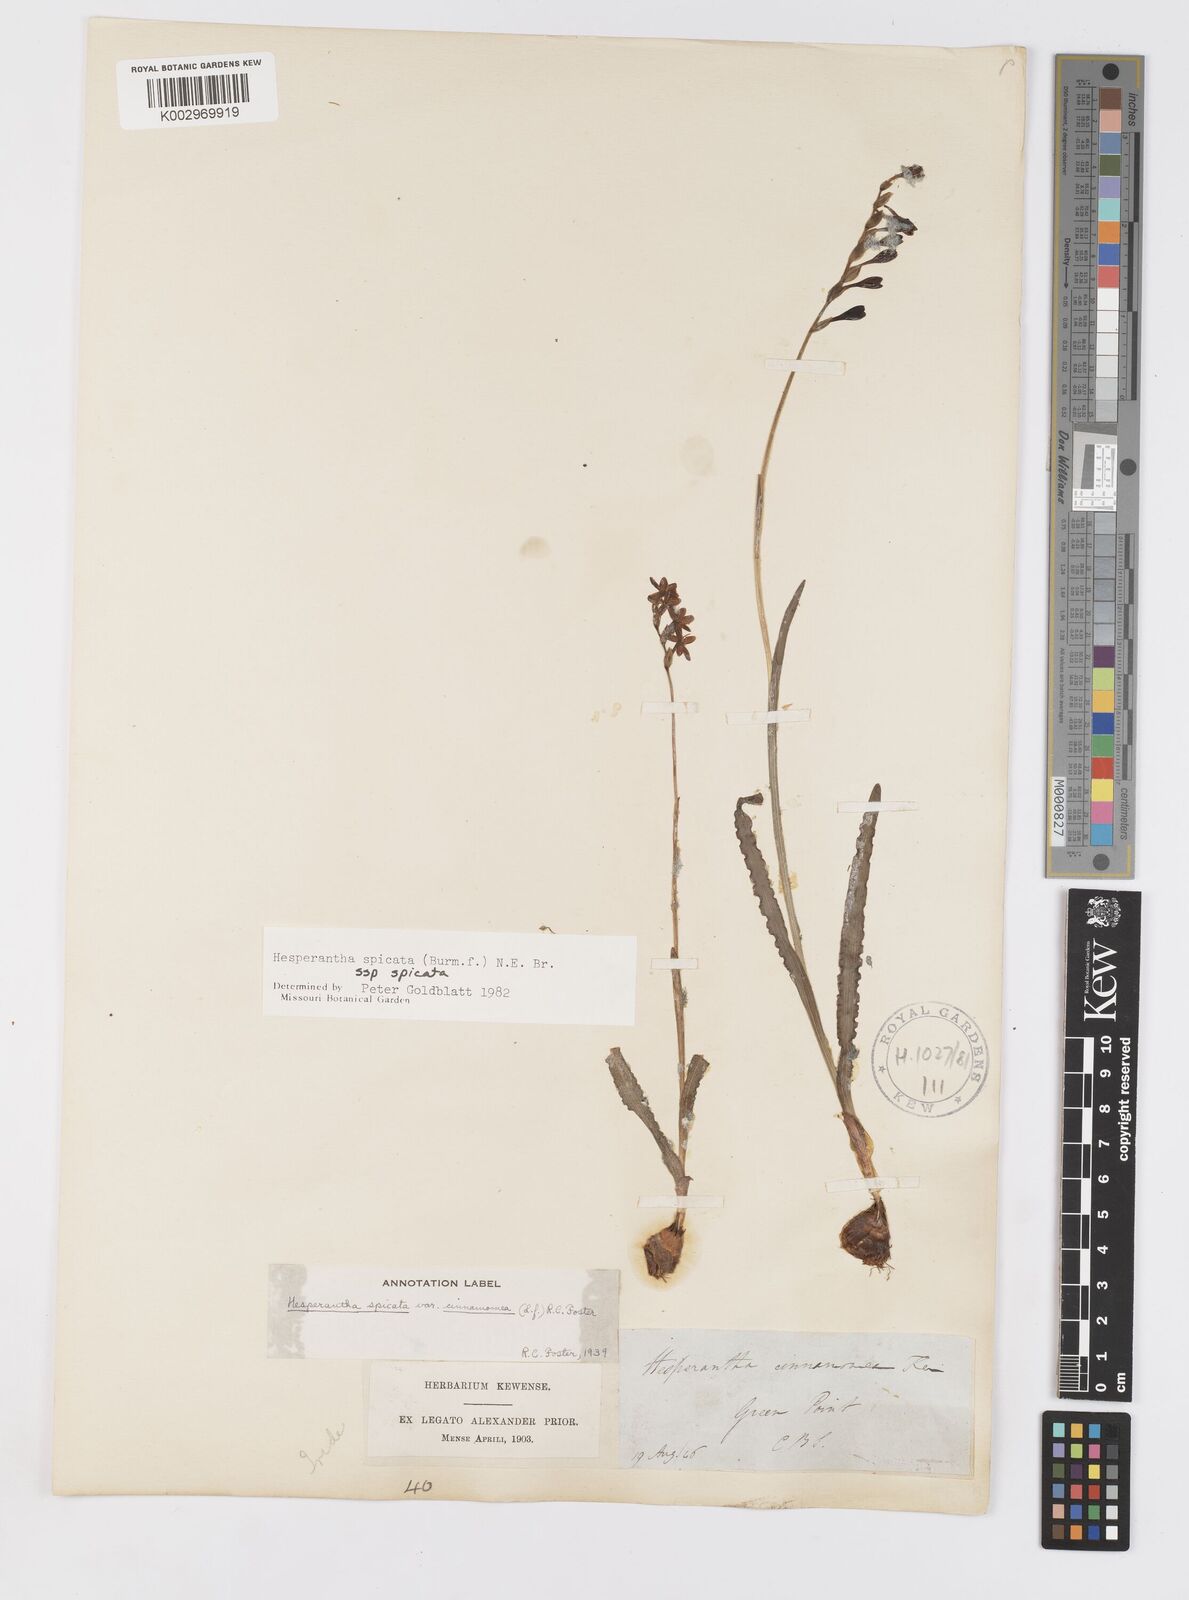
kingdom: Plantae
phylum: Tracheophyta
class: Liliopsida
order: Asparagales
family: Iridaceae
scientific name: Iridaceae
